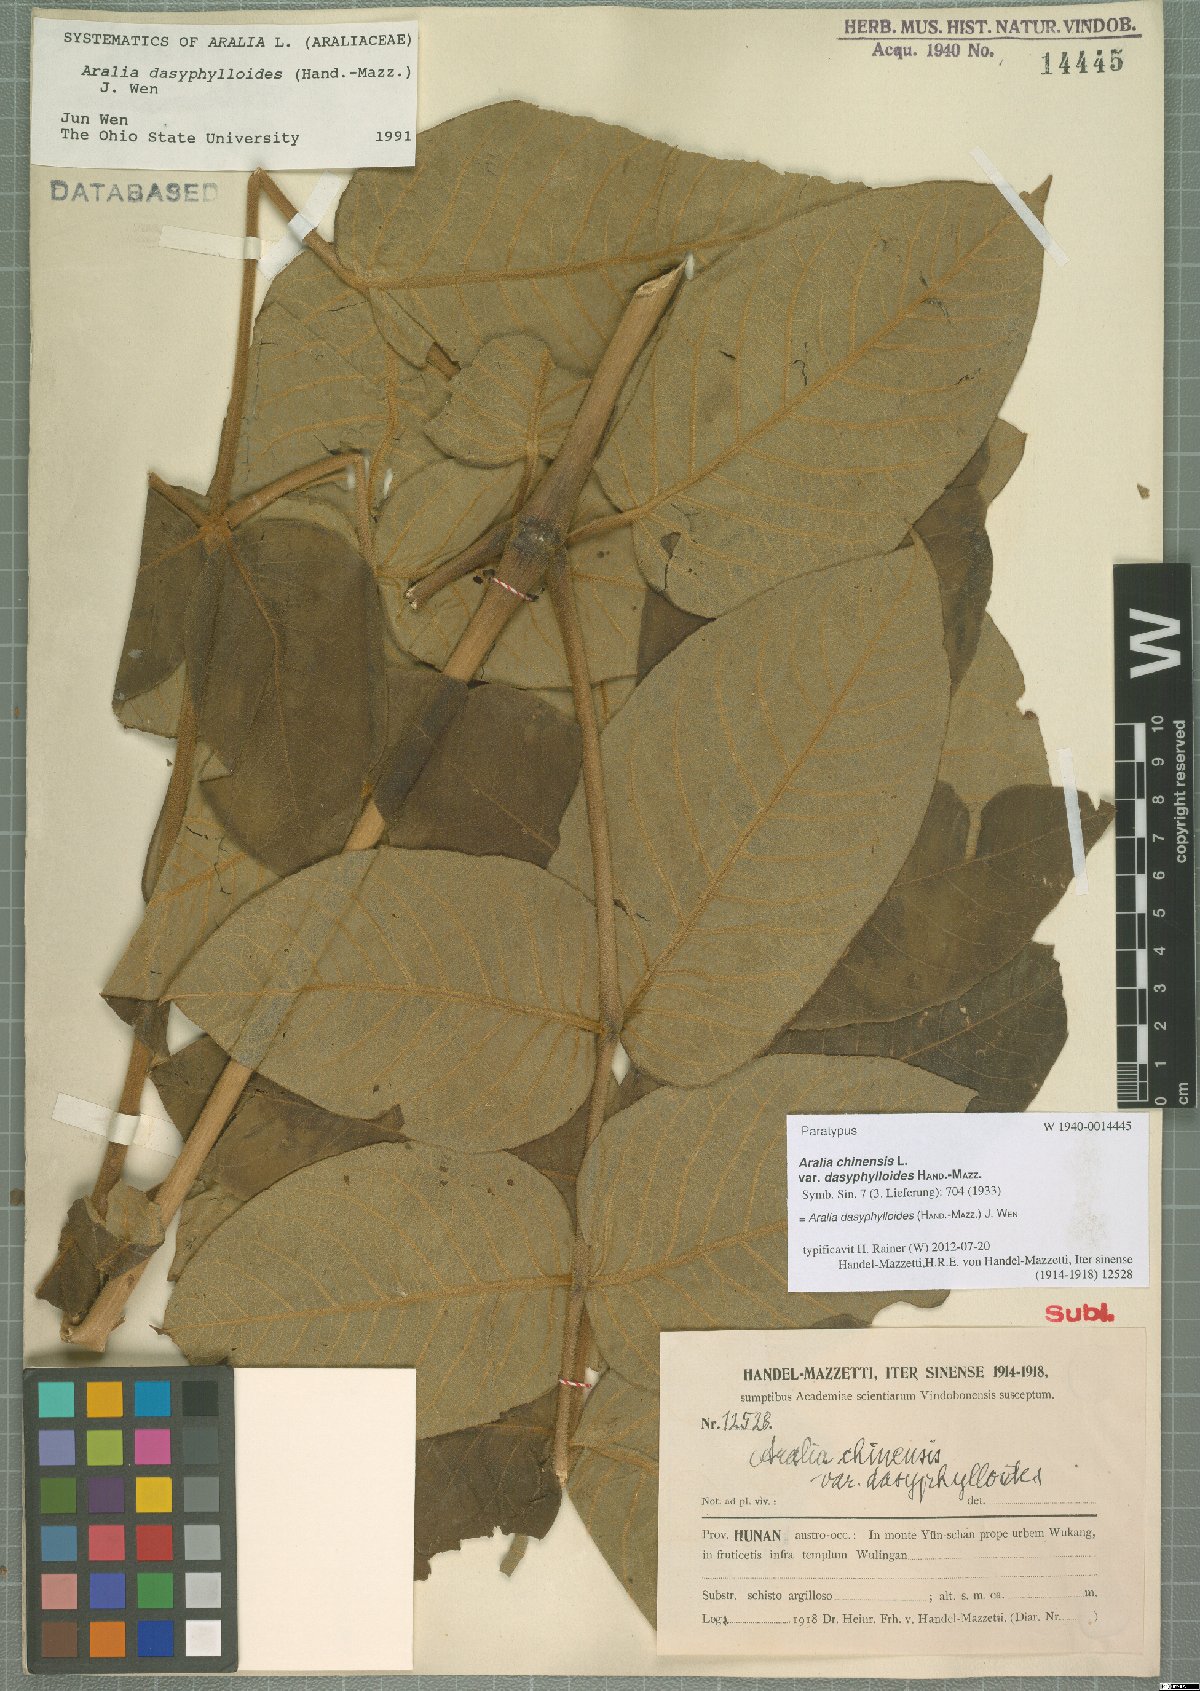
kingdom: Plantae
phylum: Tracheophyta
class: Magnoliopsida
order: Apiales
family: Araliaceae
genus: Aralia
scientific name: Aralia dasyphylloides
